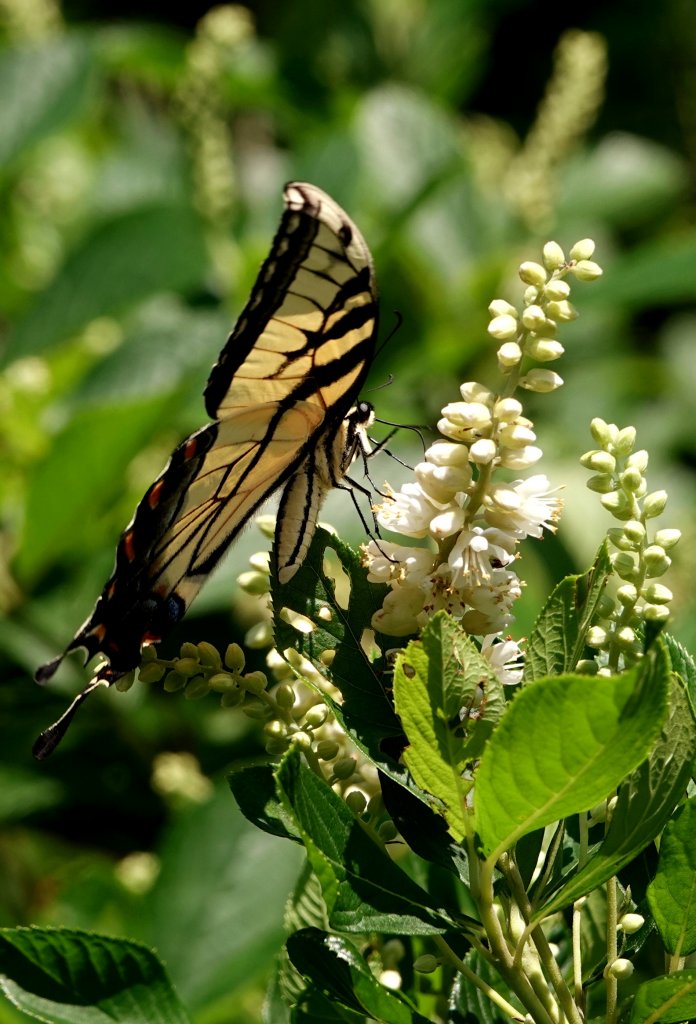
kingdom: Animalia
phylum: Arthropoda
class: Insecta
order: Lepidoptera
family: Papilionidae
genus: Pterourus
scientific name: Pterourus glaucus
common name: Eastern Tiger Swallowtail
